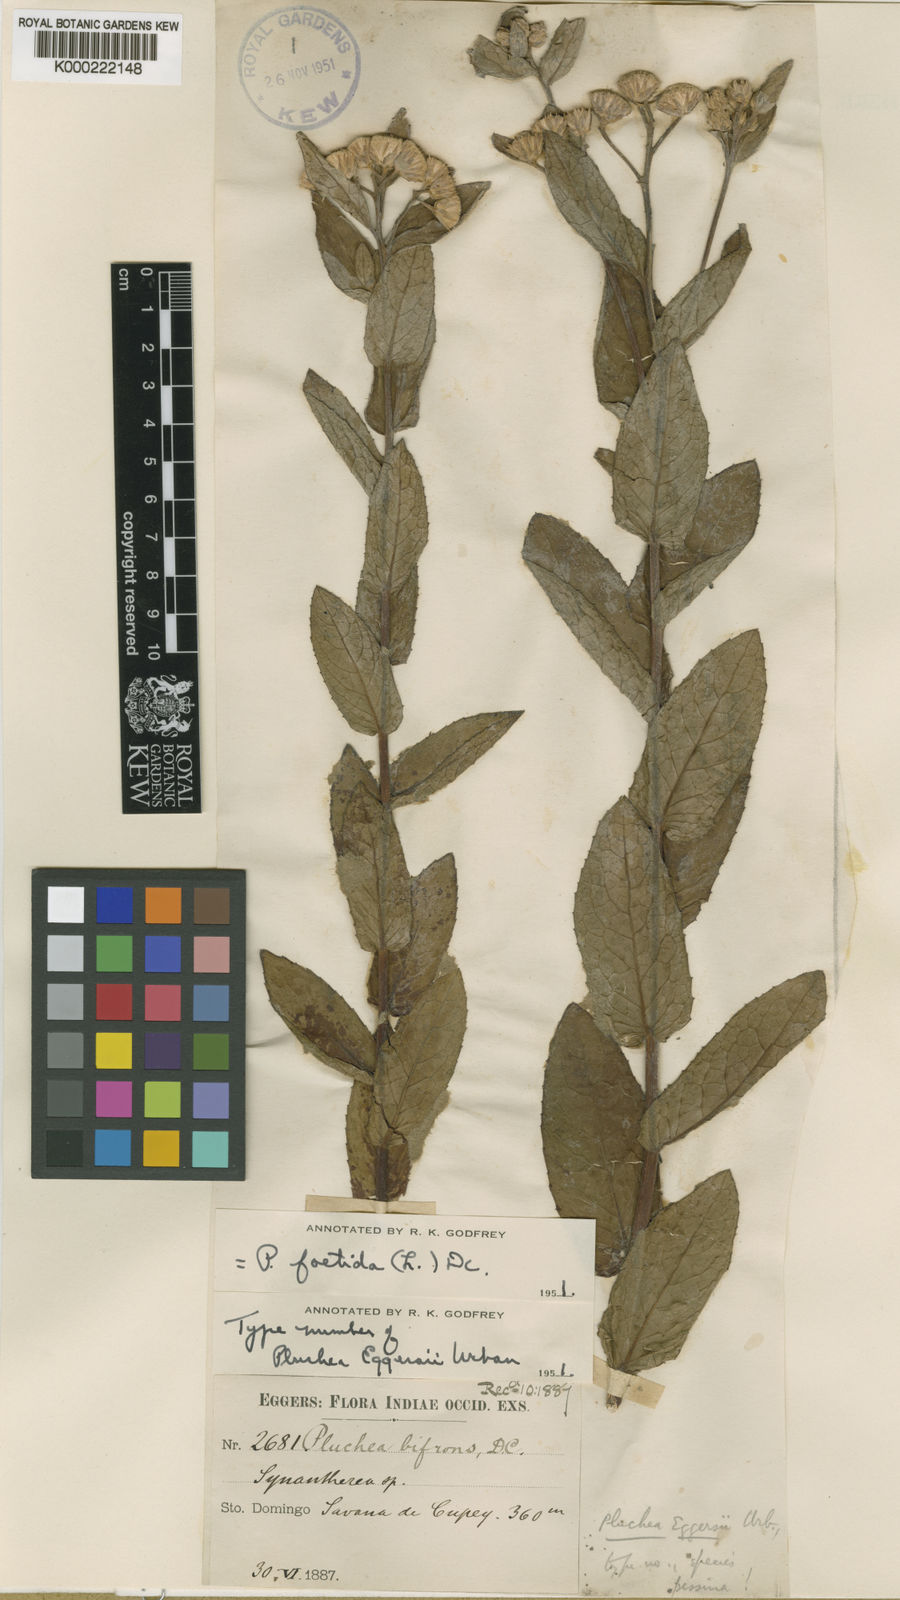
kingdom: Plantae
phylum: Tracheophyta
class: Magnoliopsida
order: Asterales
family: Asteraceae
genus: Pluchea
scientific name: Pluchea foetida
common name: Stinking camphorweed
